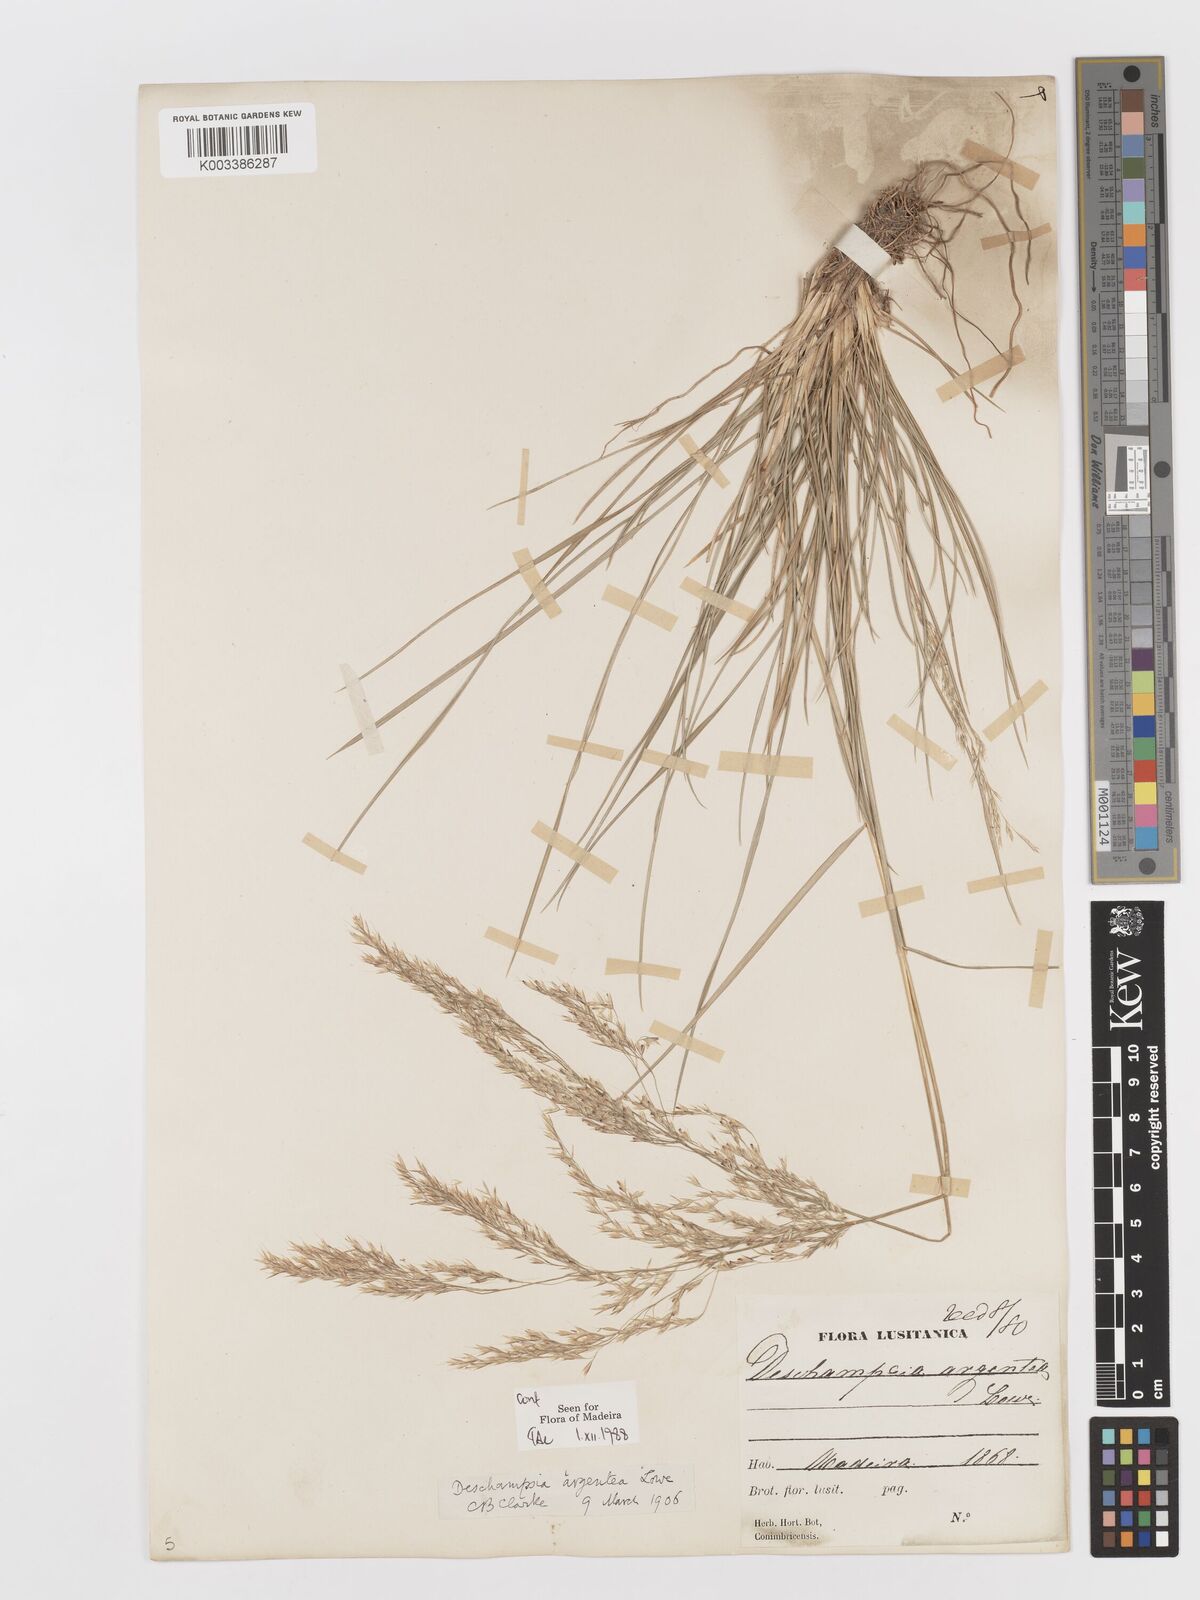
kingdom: Plantae
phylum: Tracheophyta
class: Liliopsida
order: Poales
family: Poaceae
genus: Deschampsia
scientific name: Deschampsia argentea
